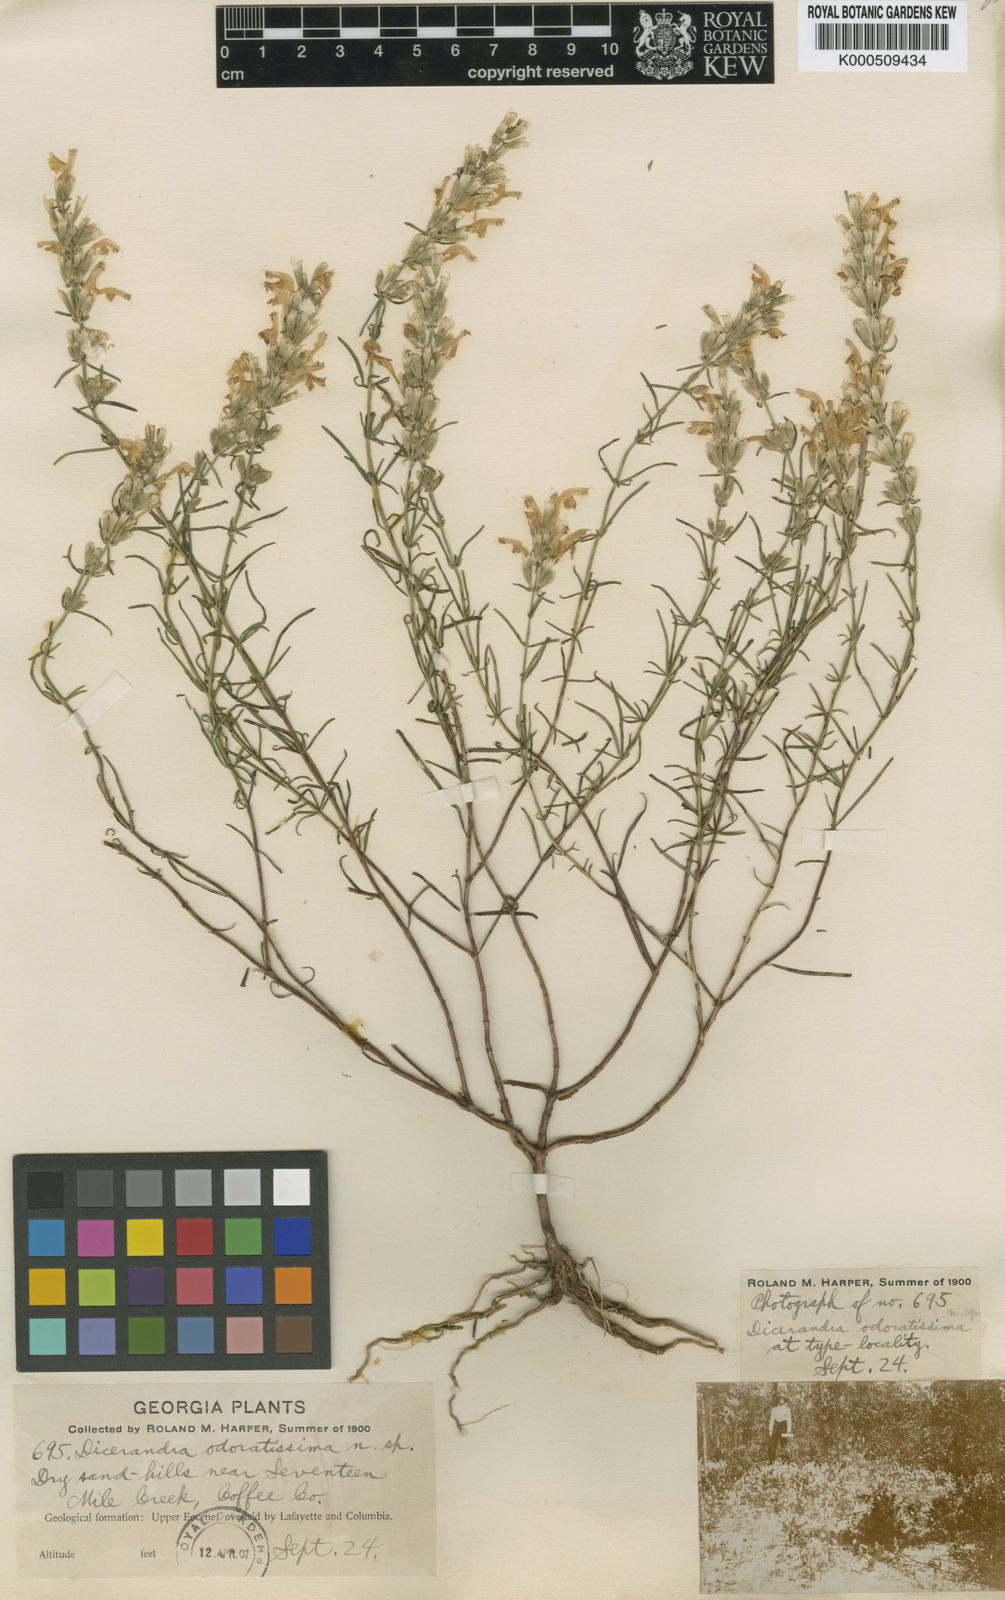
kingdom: Plantae
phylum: Tracheophyta
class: Magnoliopsida
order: Lamiales
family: Lamiaceae
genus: Dicerandra
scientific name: Dicerandra odaratissima
